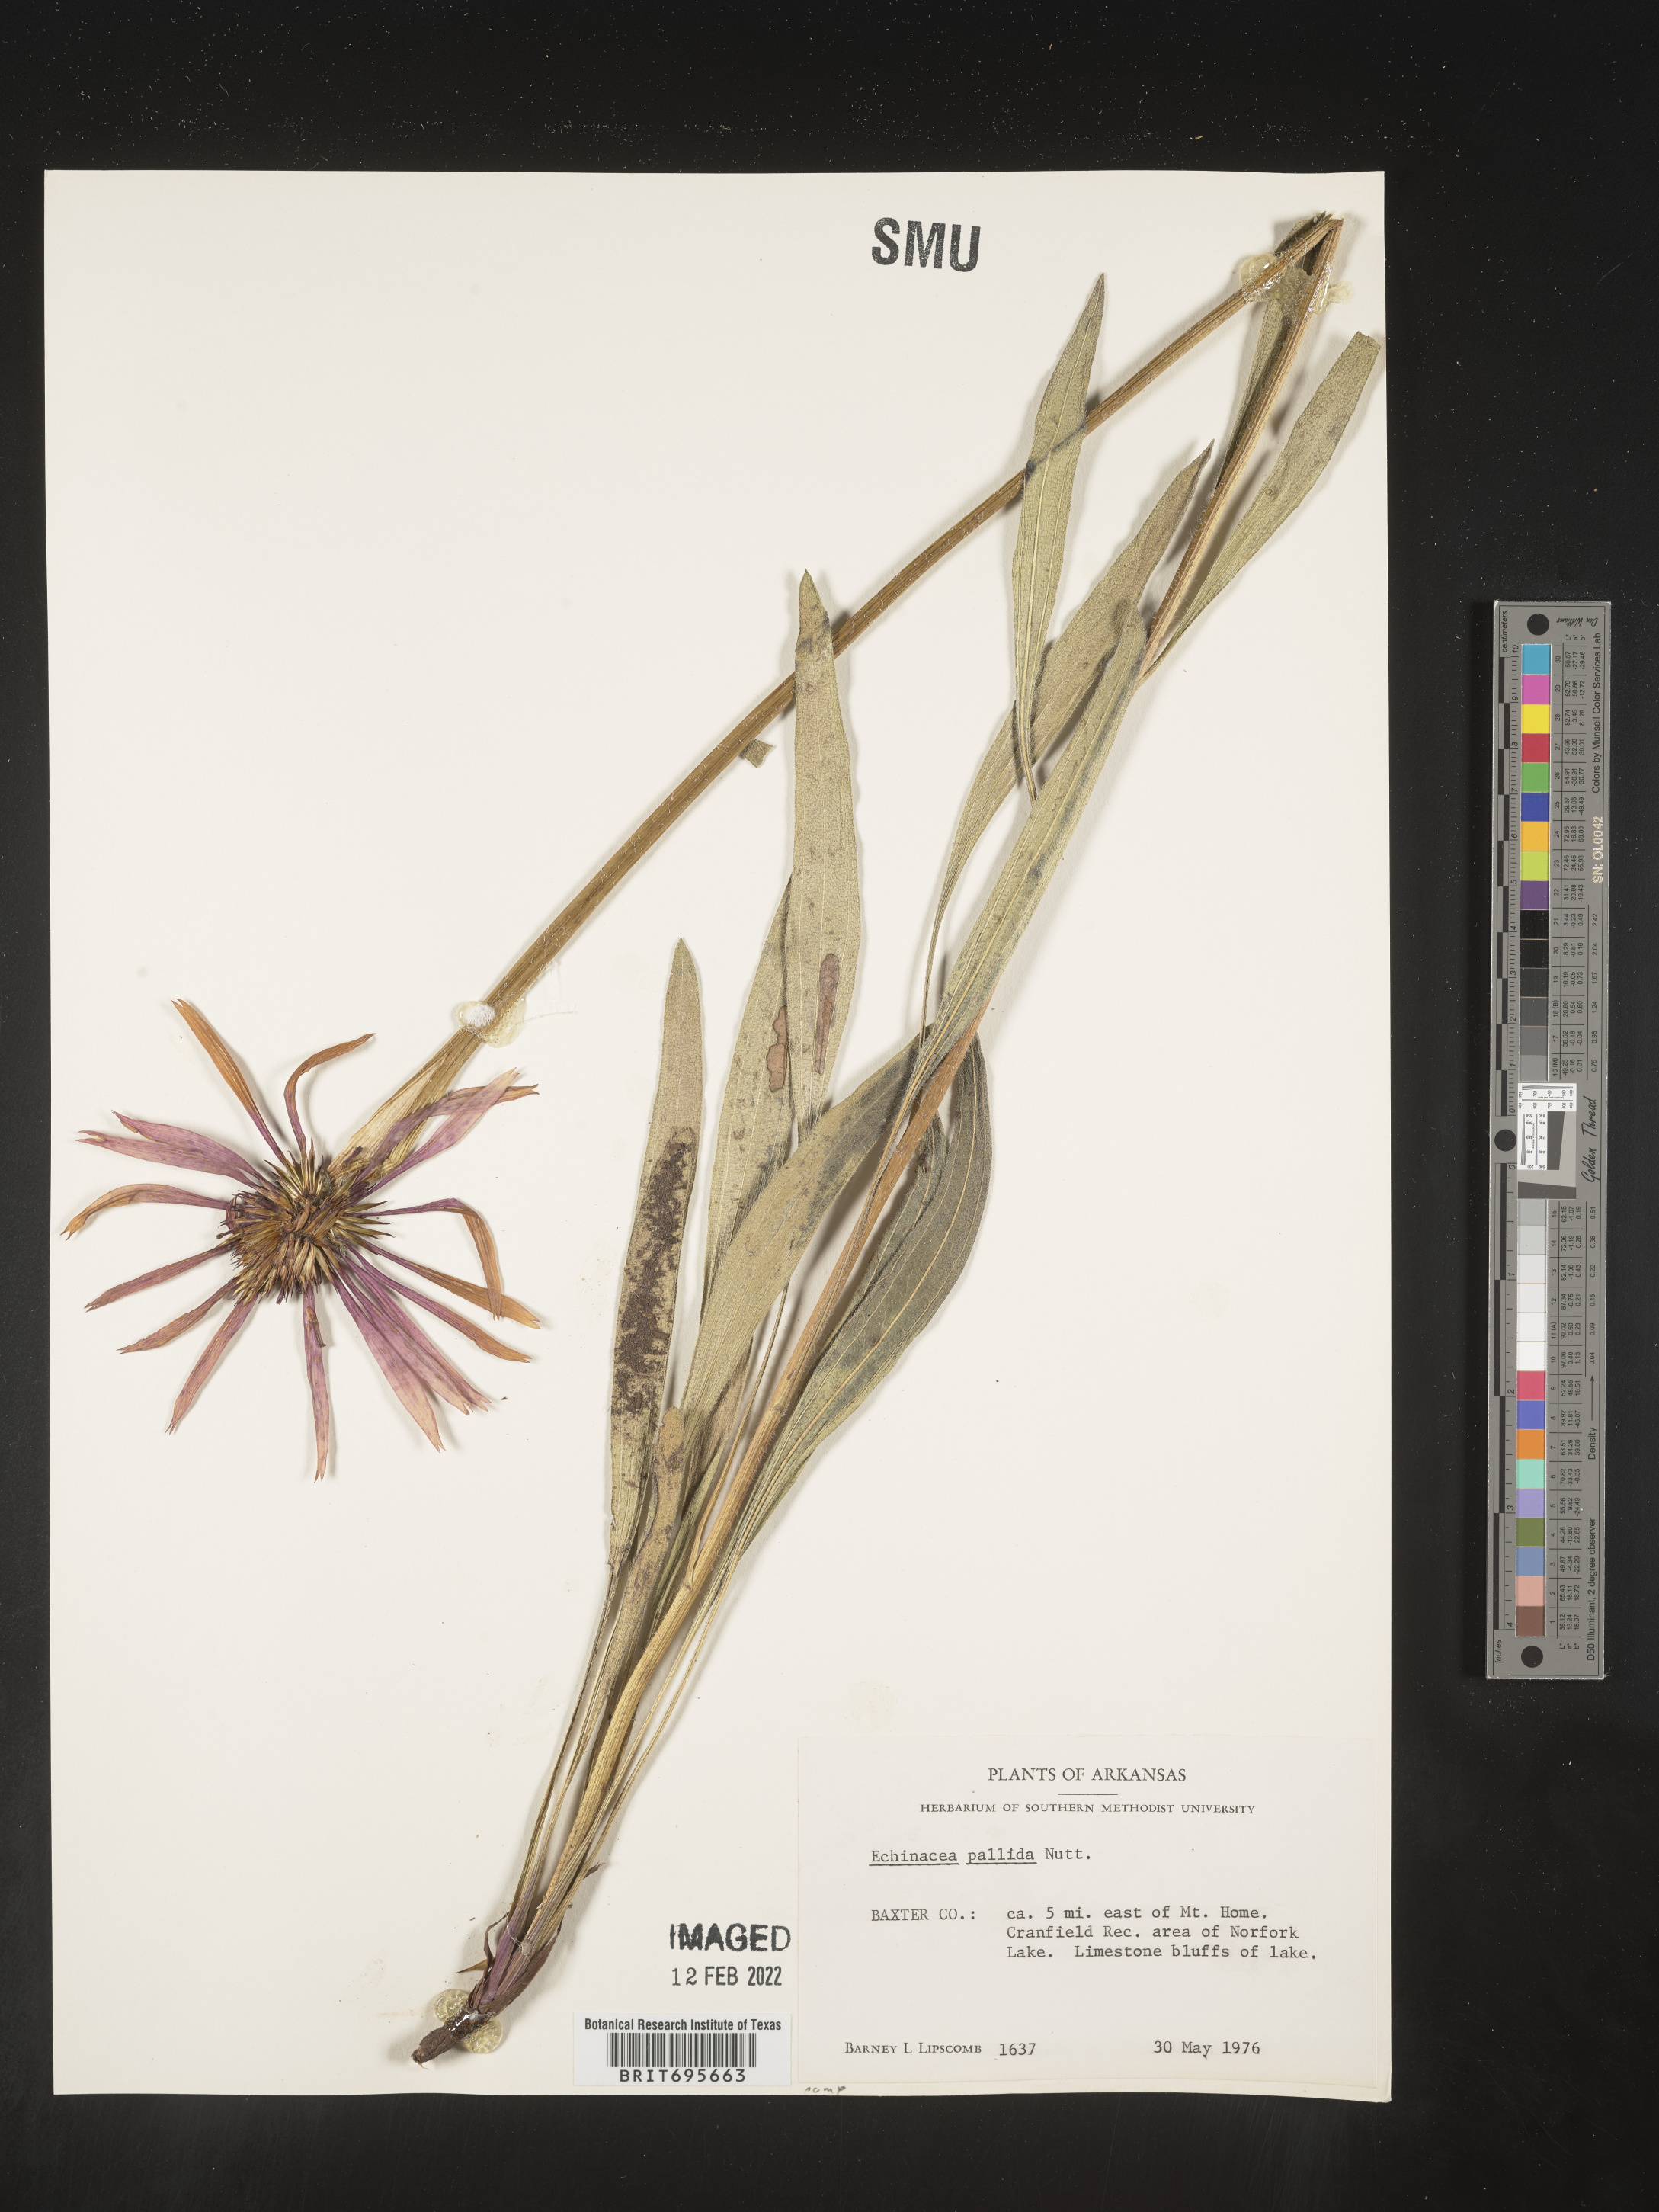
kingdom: Plantae
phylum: Tracheophyta
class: Magnoliopsida
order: Asterales
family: Asteraceae
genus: Echinacea
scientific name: Echinacea pallida
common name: Pale echinacea
